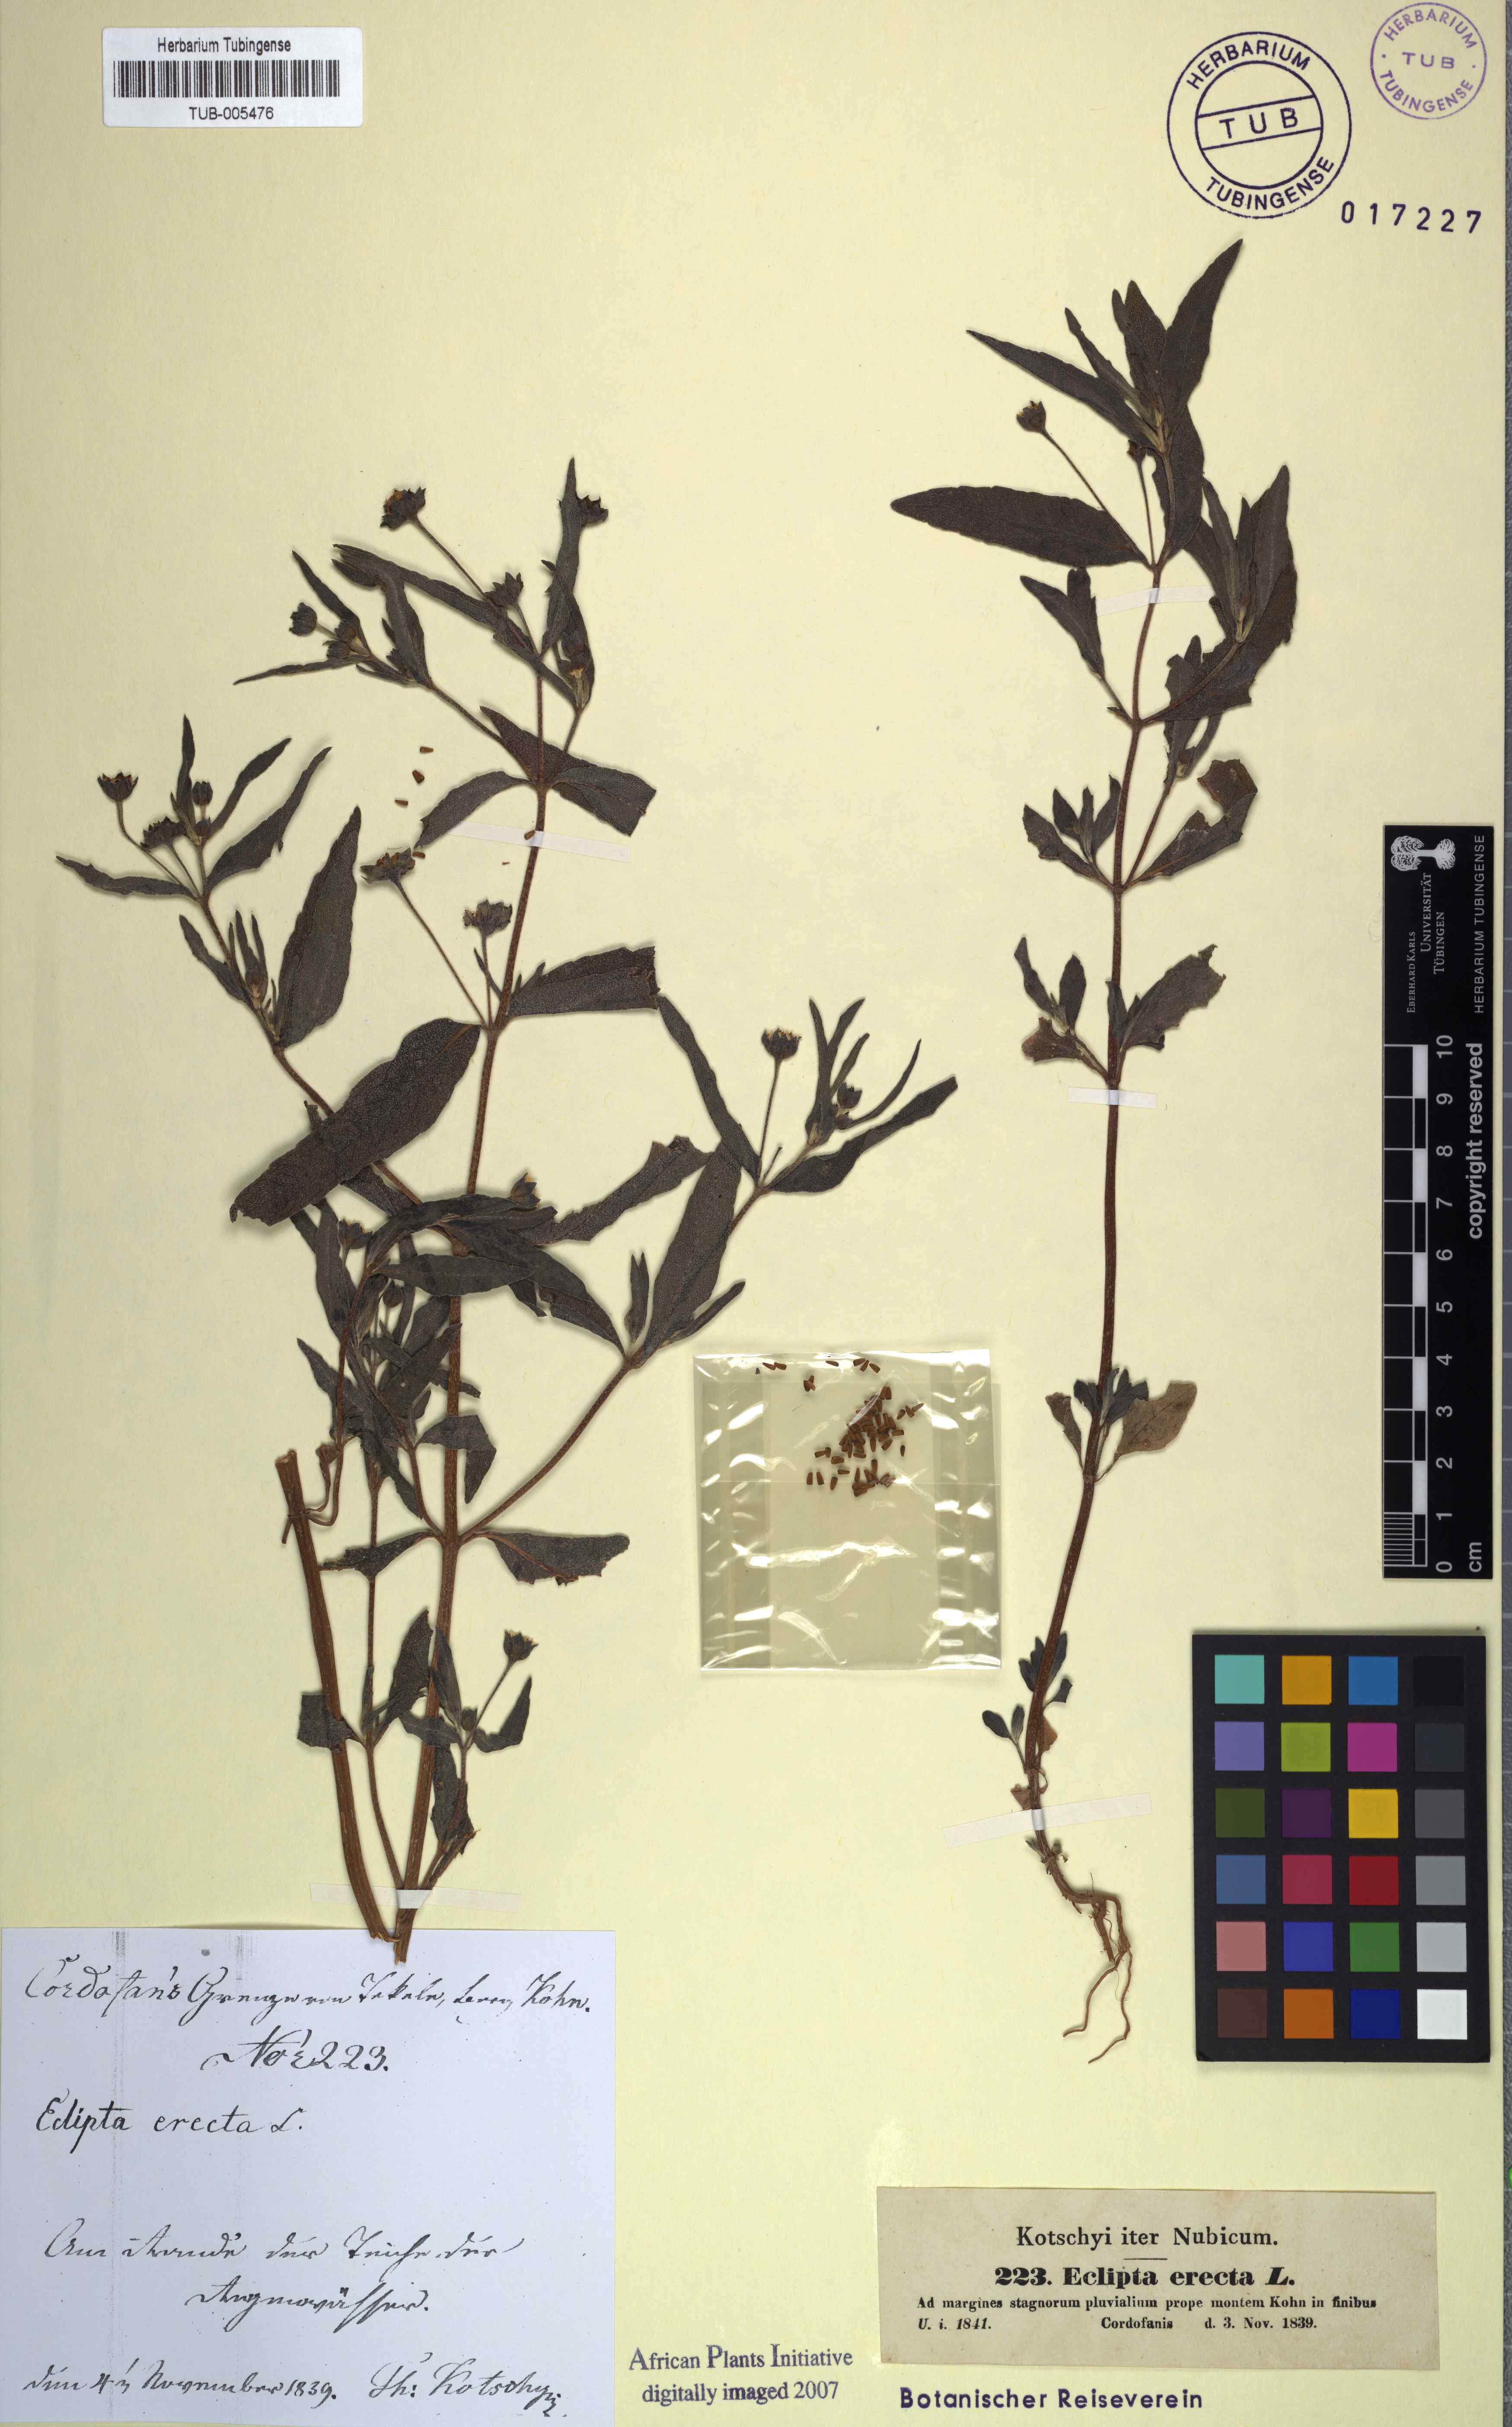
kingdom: Plantae
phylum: Tracheophyta
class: Magnoliopsida
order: Asterales
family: Asteraceae
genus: Eclipta
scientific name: Eclipta alba
